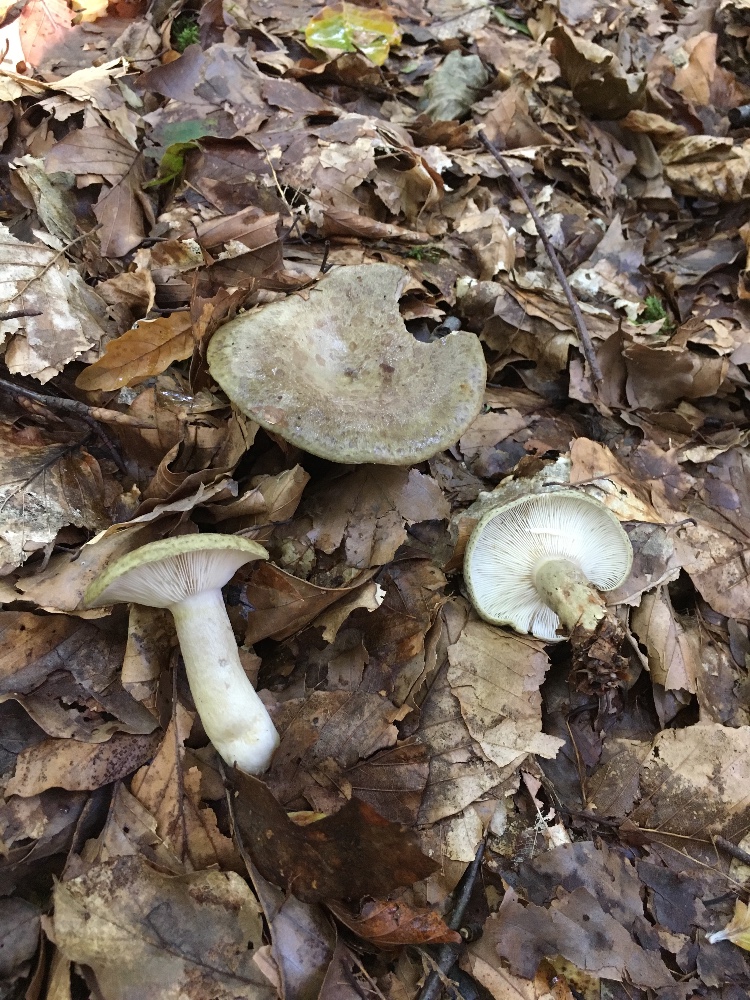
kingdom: Fungi
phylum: Basidiomycota
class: Agaricomycetes
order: Russulales
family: Russulaceae
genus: Lactarius
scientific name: Lactarius blennius
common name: dråbeplettet mælkehat
